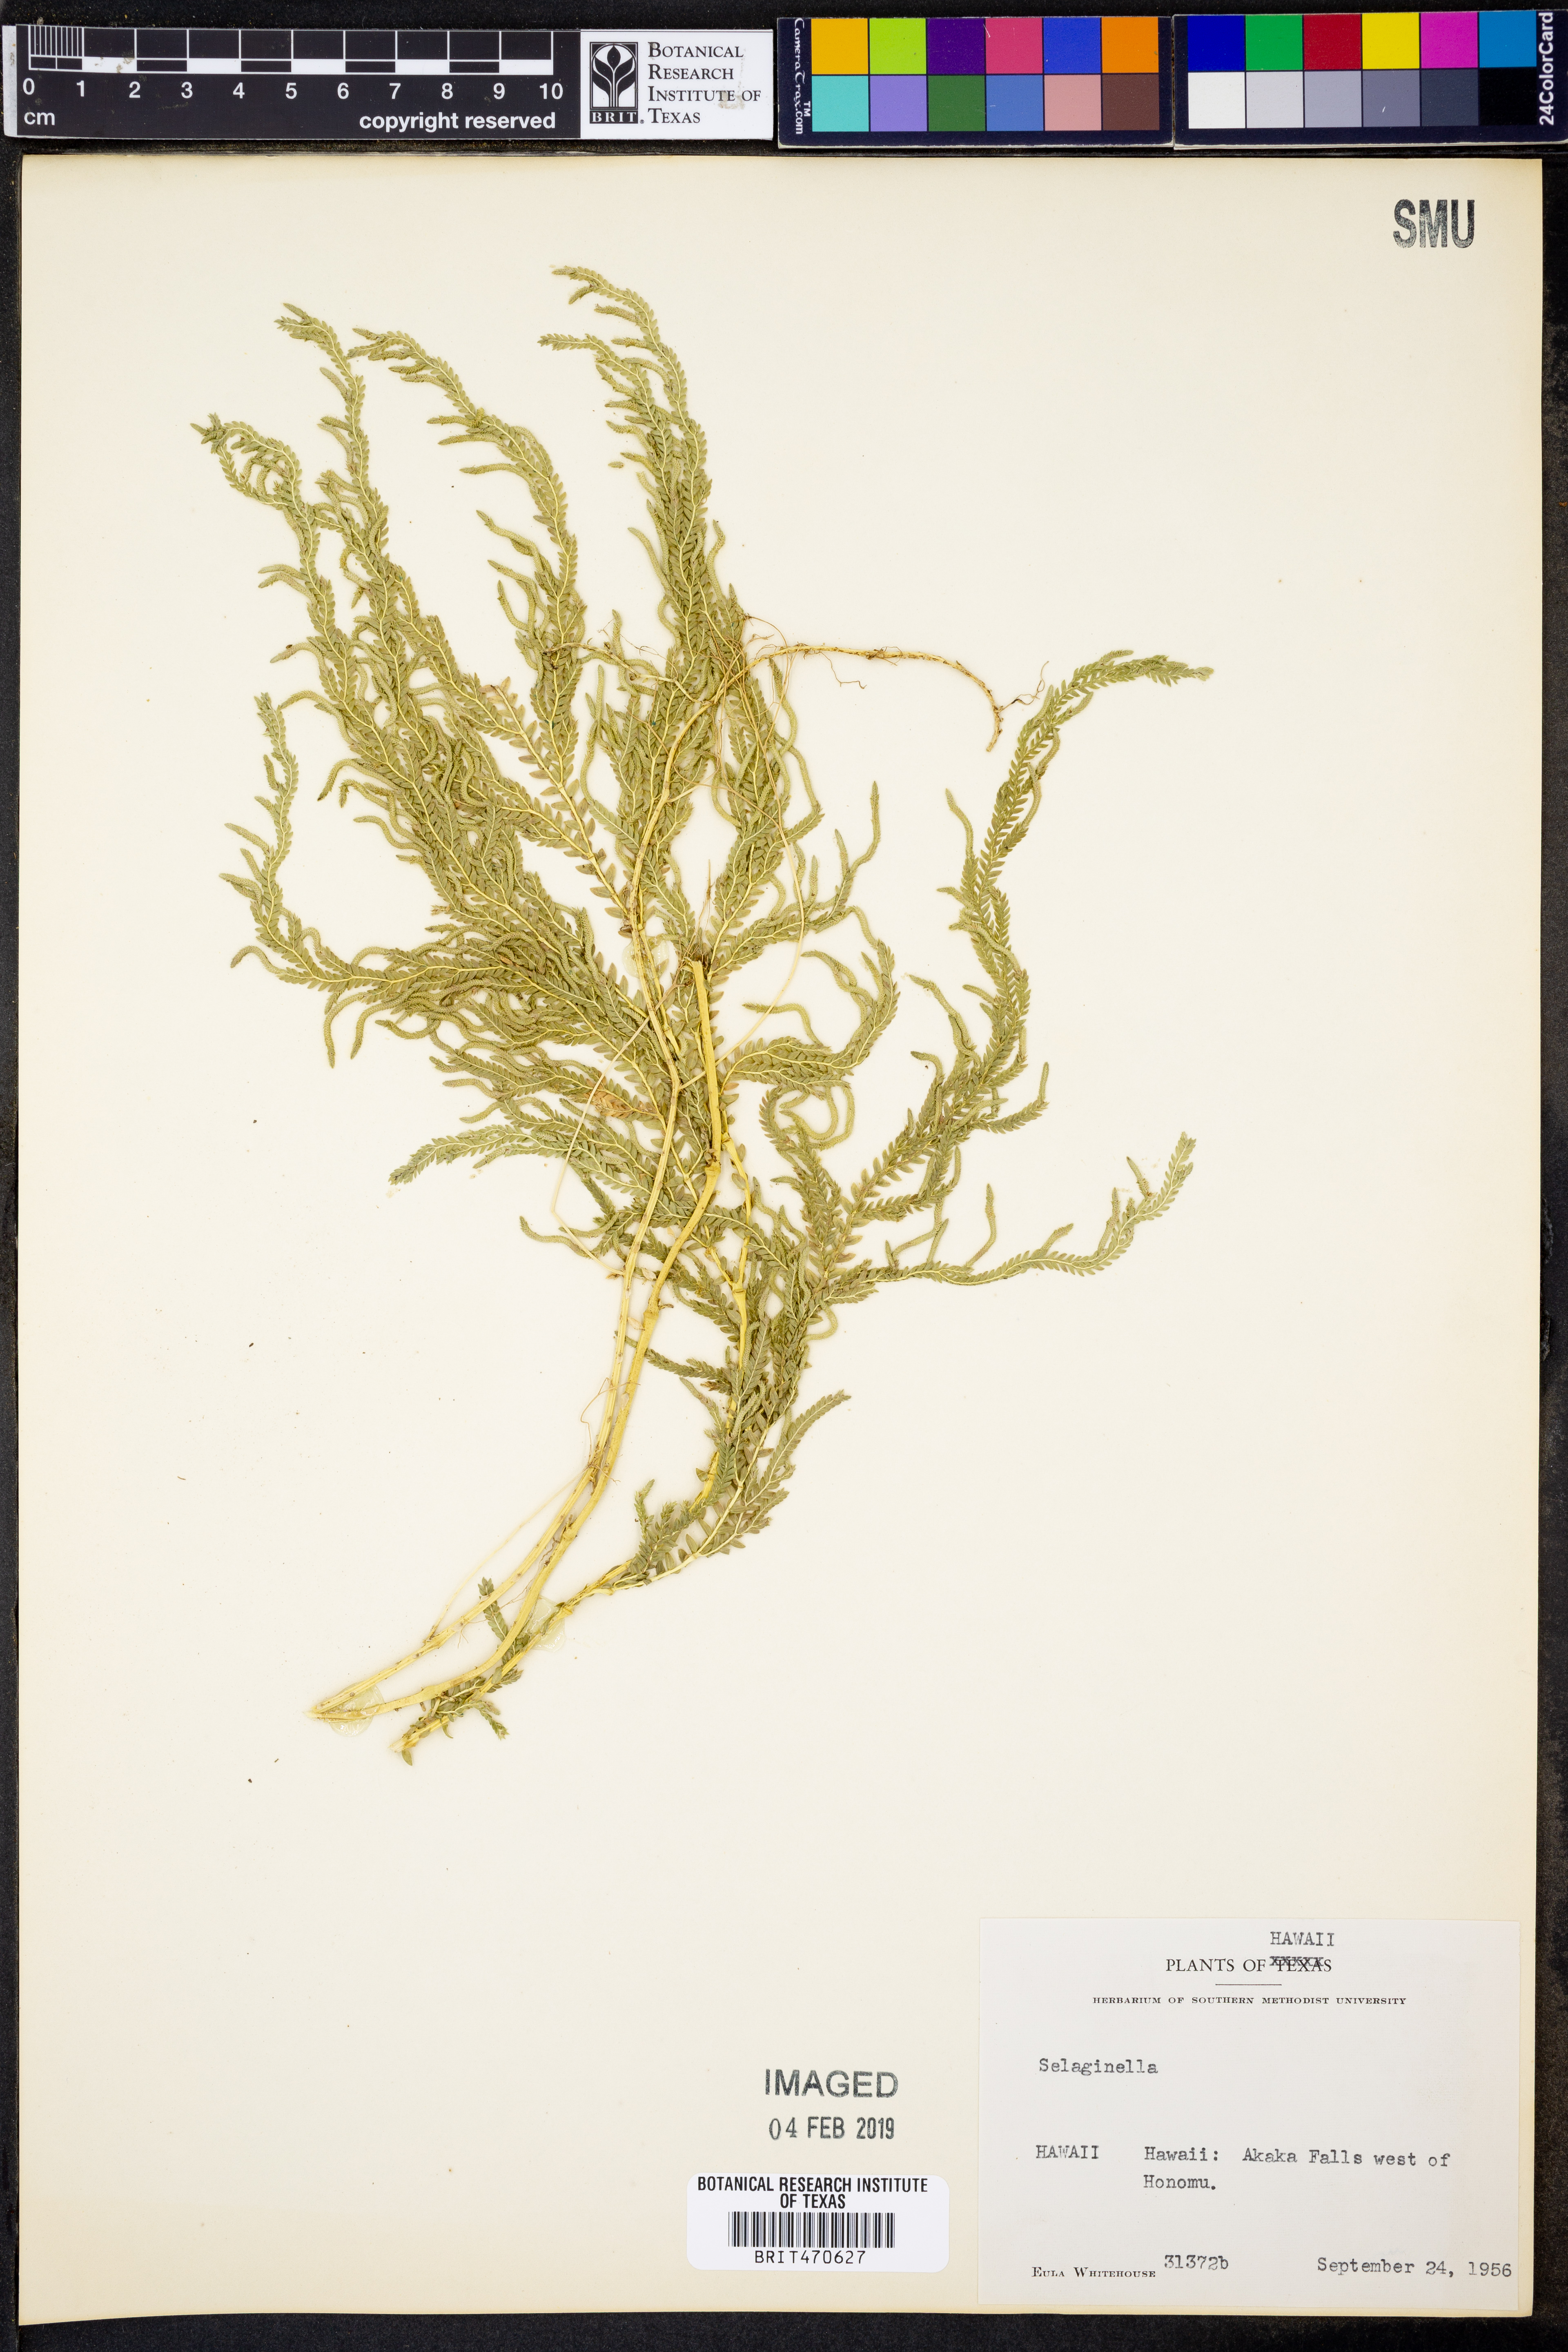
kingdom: Plantae
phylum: Tracheophyta
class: Lycopodiopsida
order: Selaginellales
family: Selaginellaceae
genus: Selaginella
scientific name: Selaginella
